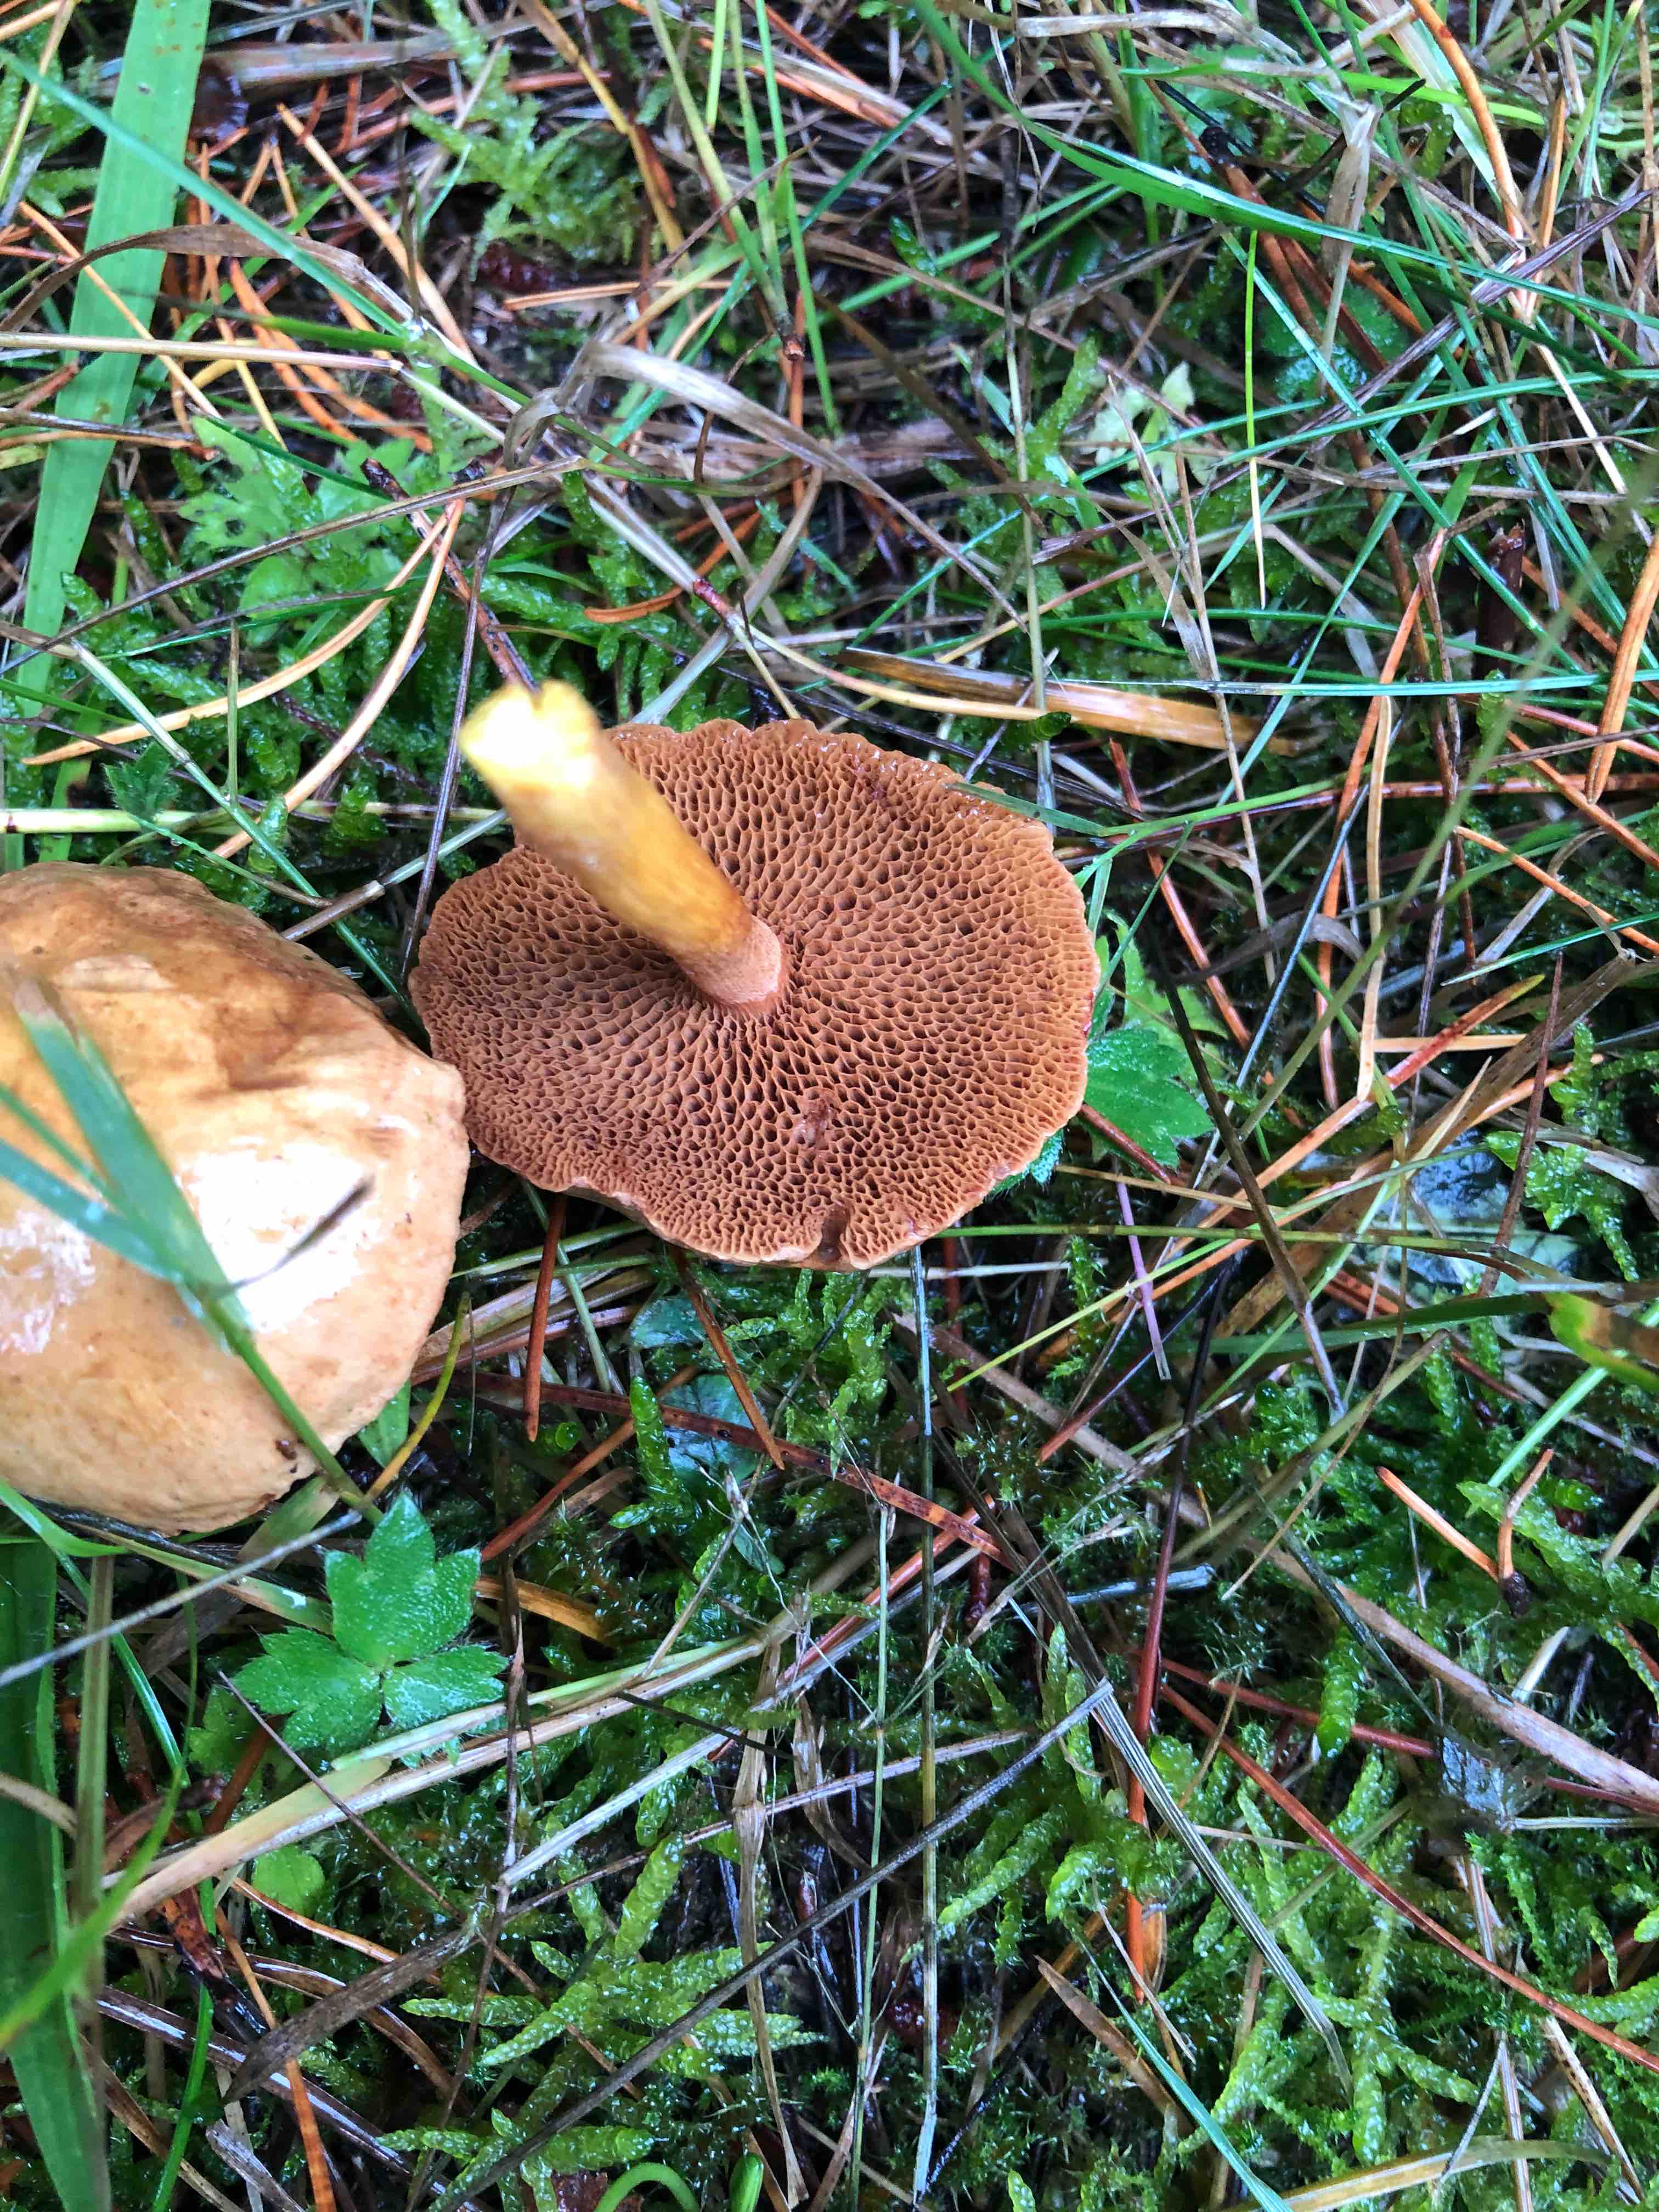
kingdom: Fungi
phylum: Basidiomycota
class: Agaricomycetes
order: Boletales
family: Boletaceae
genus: Chalciporus
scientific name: Chalciporus piperatus
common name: peberrørhat
